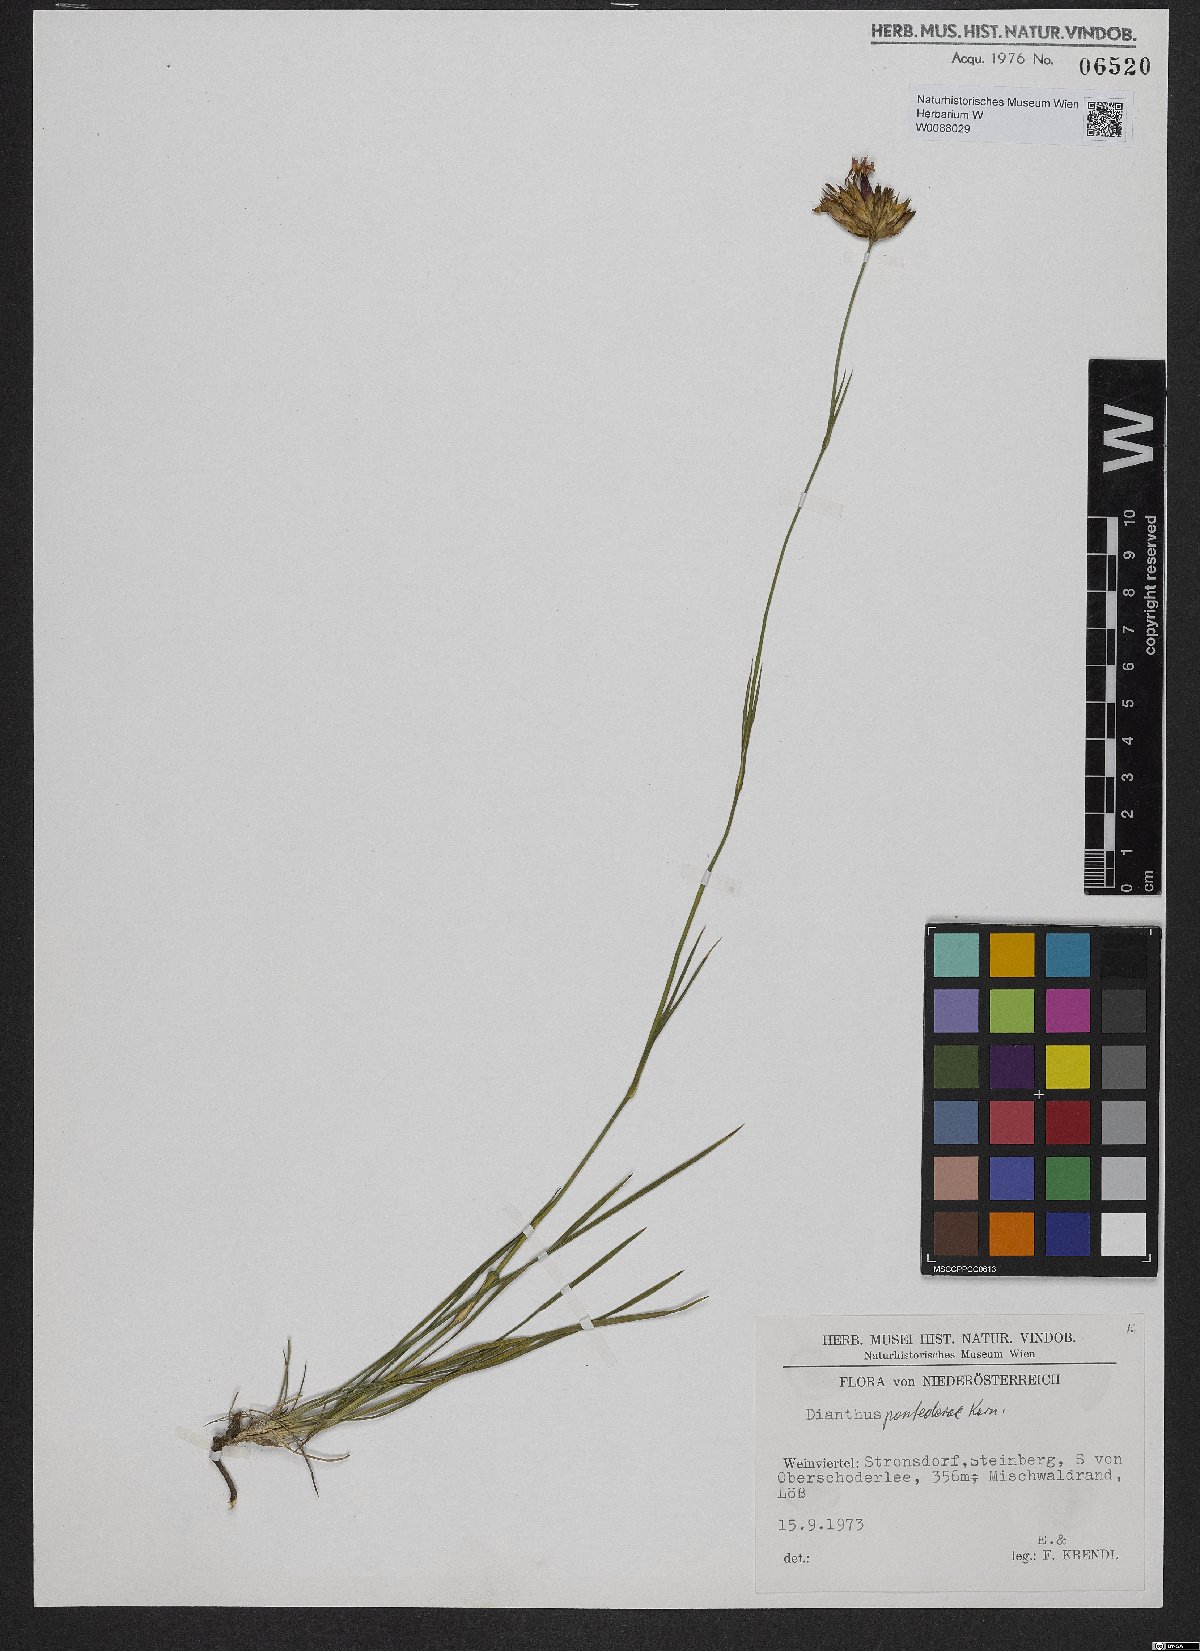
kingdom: Plantae
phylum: Tracheophyta
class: Magnoliopsida
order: Caryophyllales
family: Caryophyllaceae
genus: Dianthus
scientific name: Dianthus pontederae
